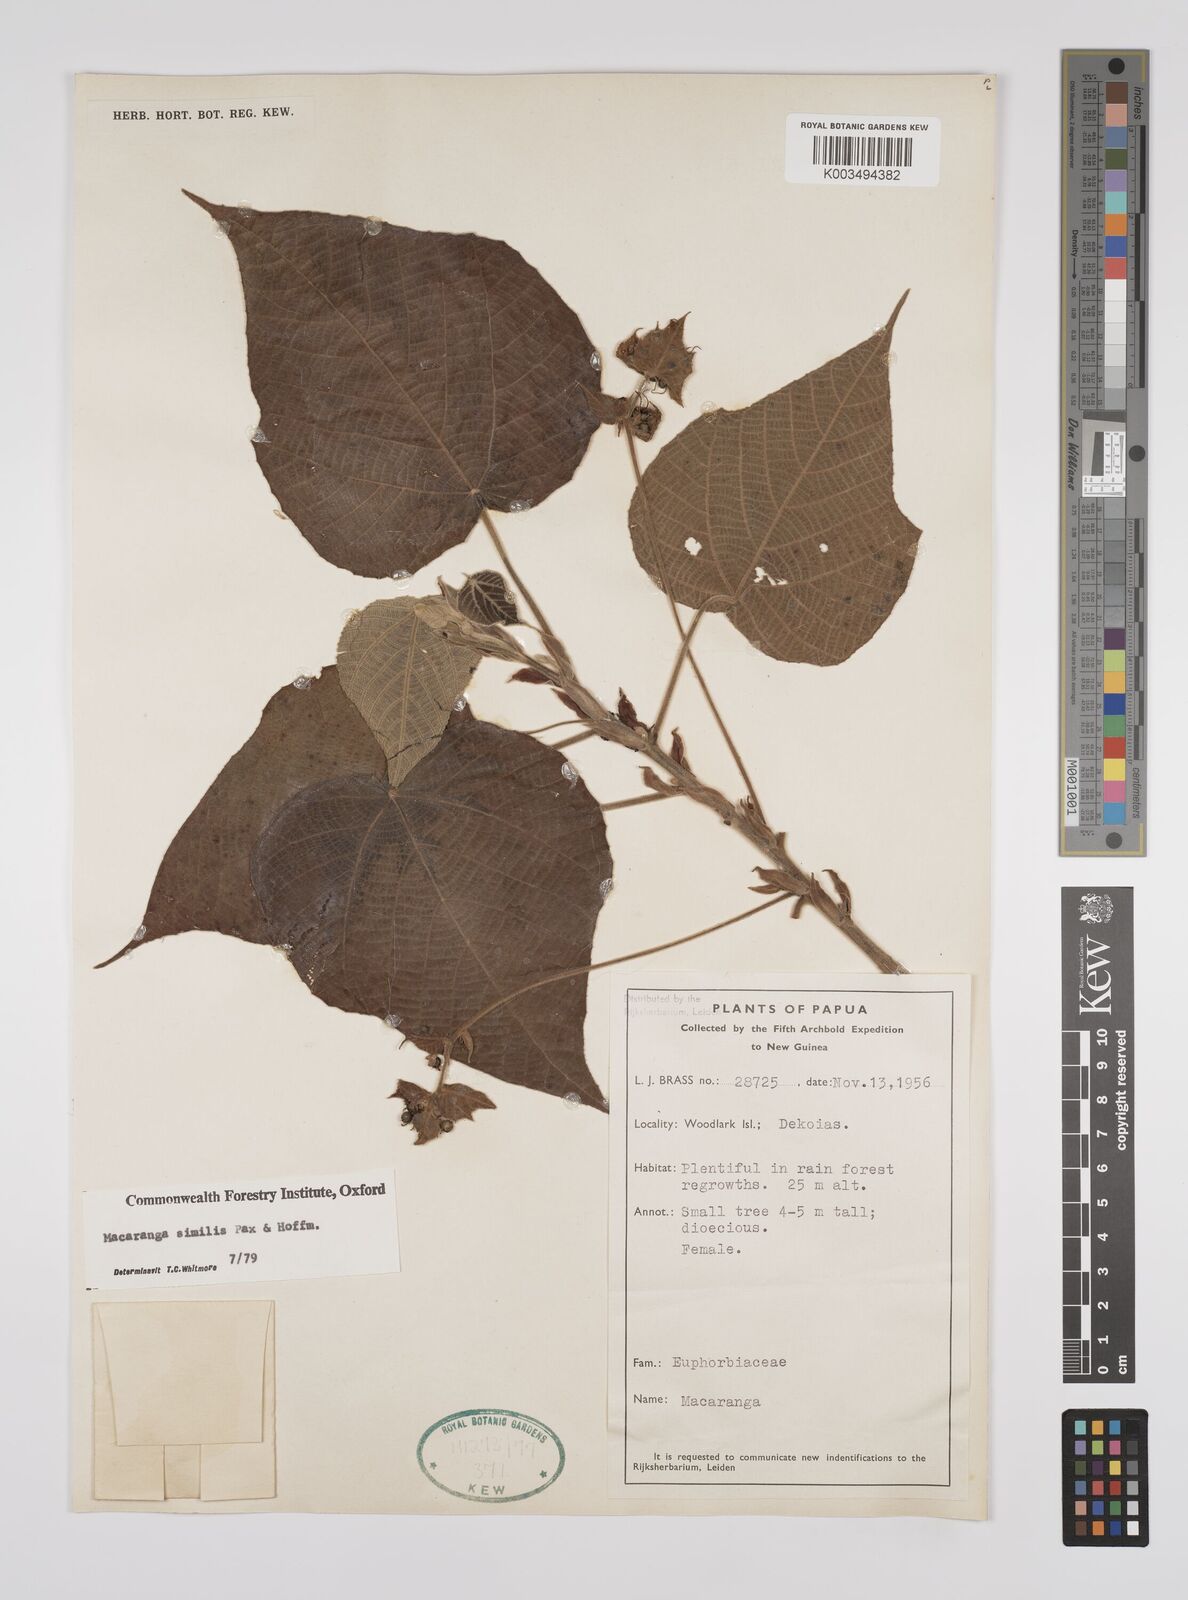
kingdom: Plantae
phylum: Tracheophyta
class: Magnoliopsida
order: Malpighiales
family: Euphorbiaceae
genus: Macaranga
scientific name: Macaranga similis
